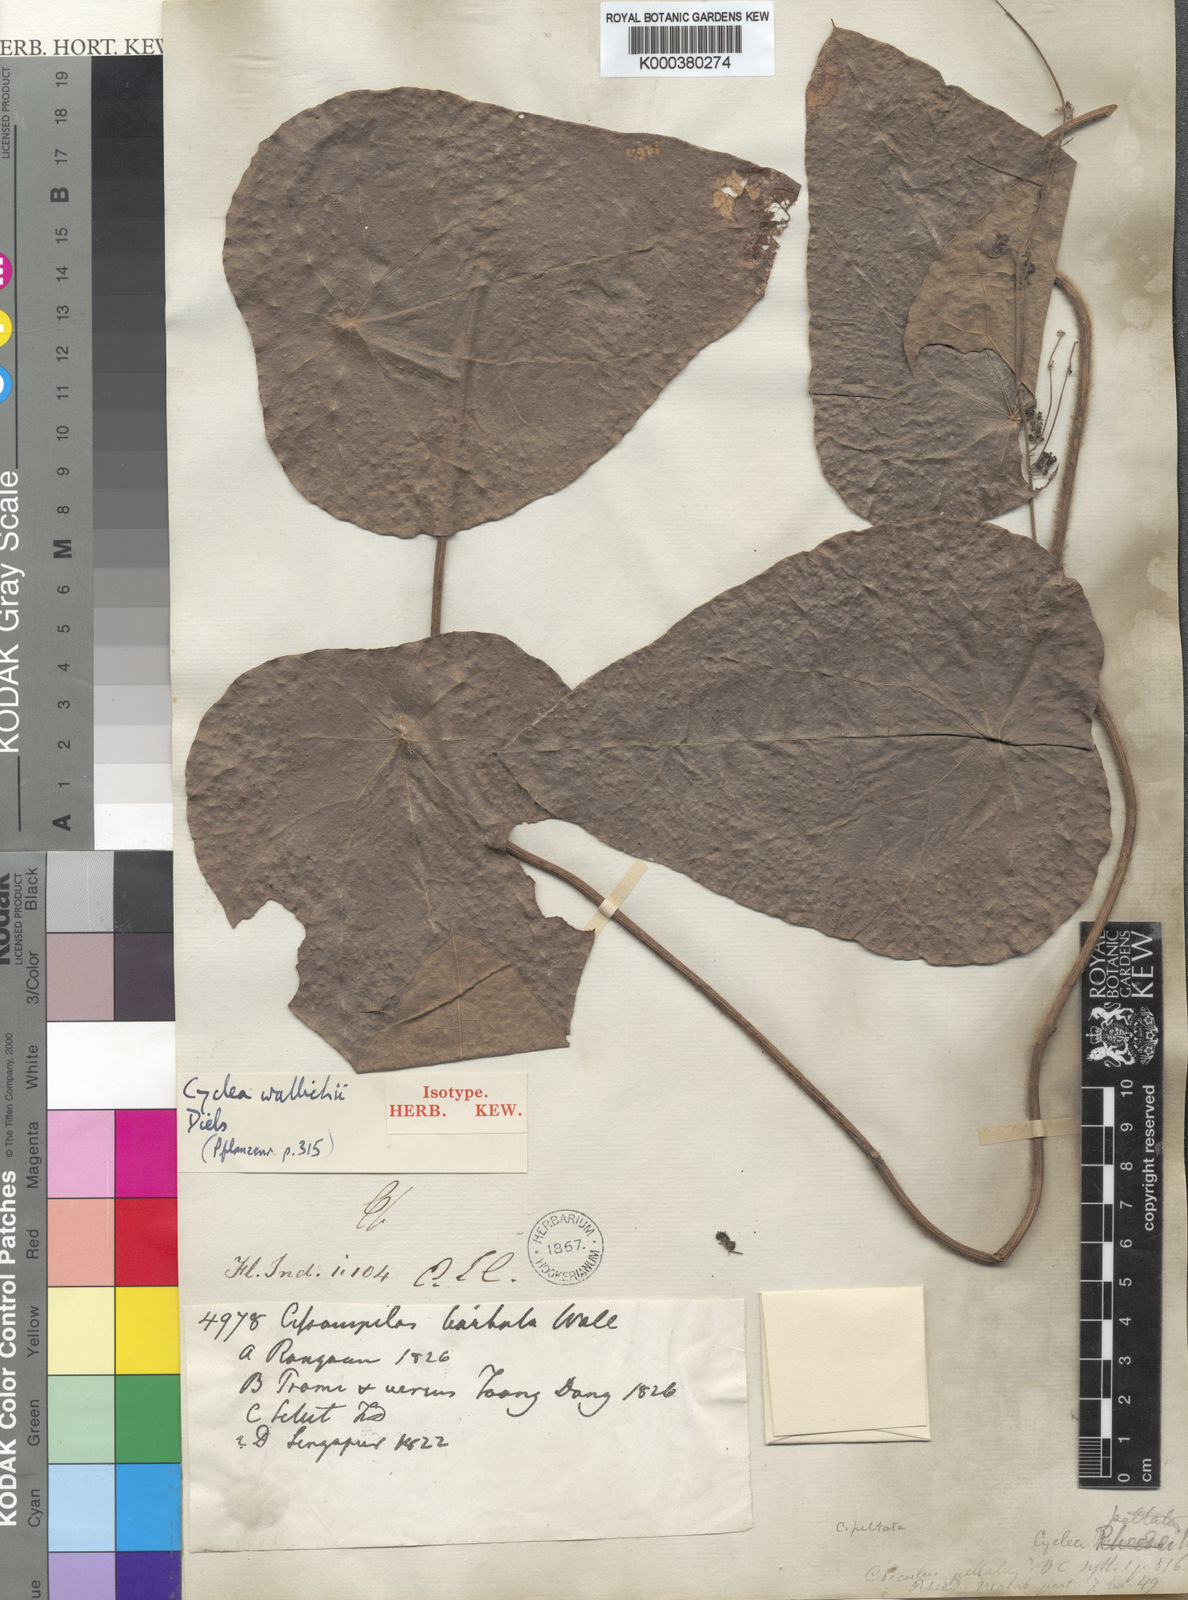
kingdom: Plantae
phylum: Tracheophyta
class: Magnoliopsida
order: Ranunculales
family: Menispermaceae
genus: Cyclea
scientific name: Cyclea barbata
